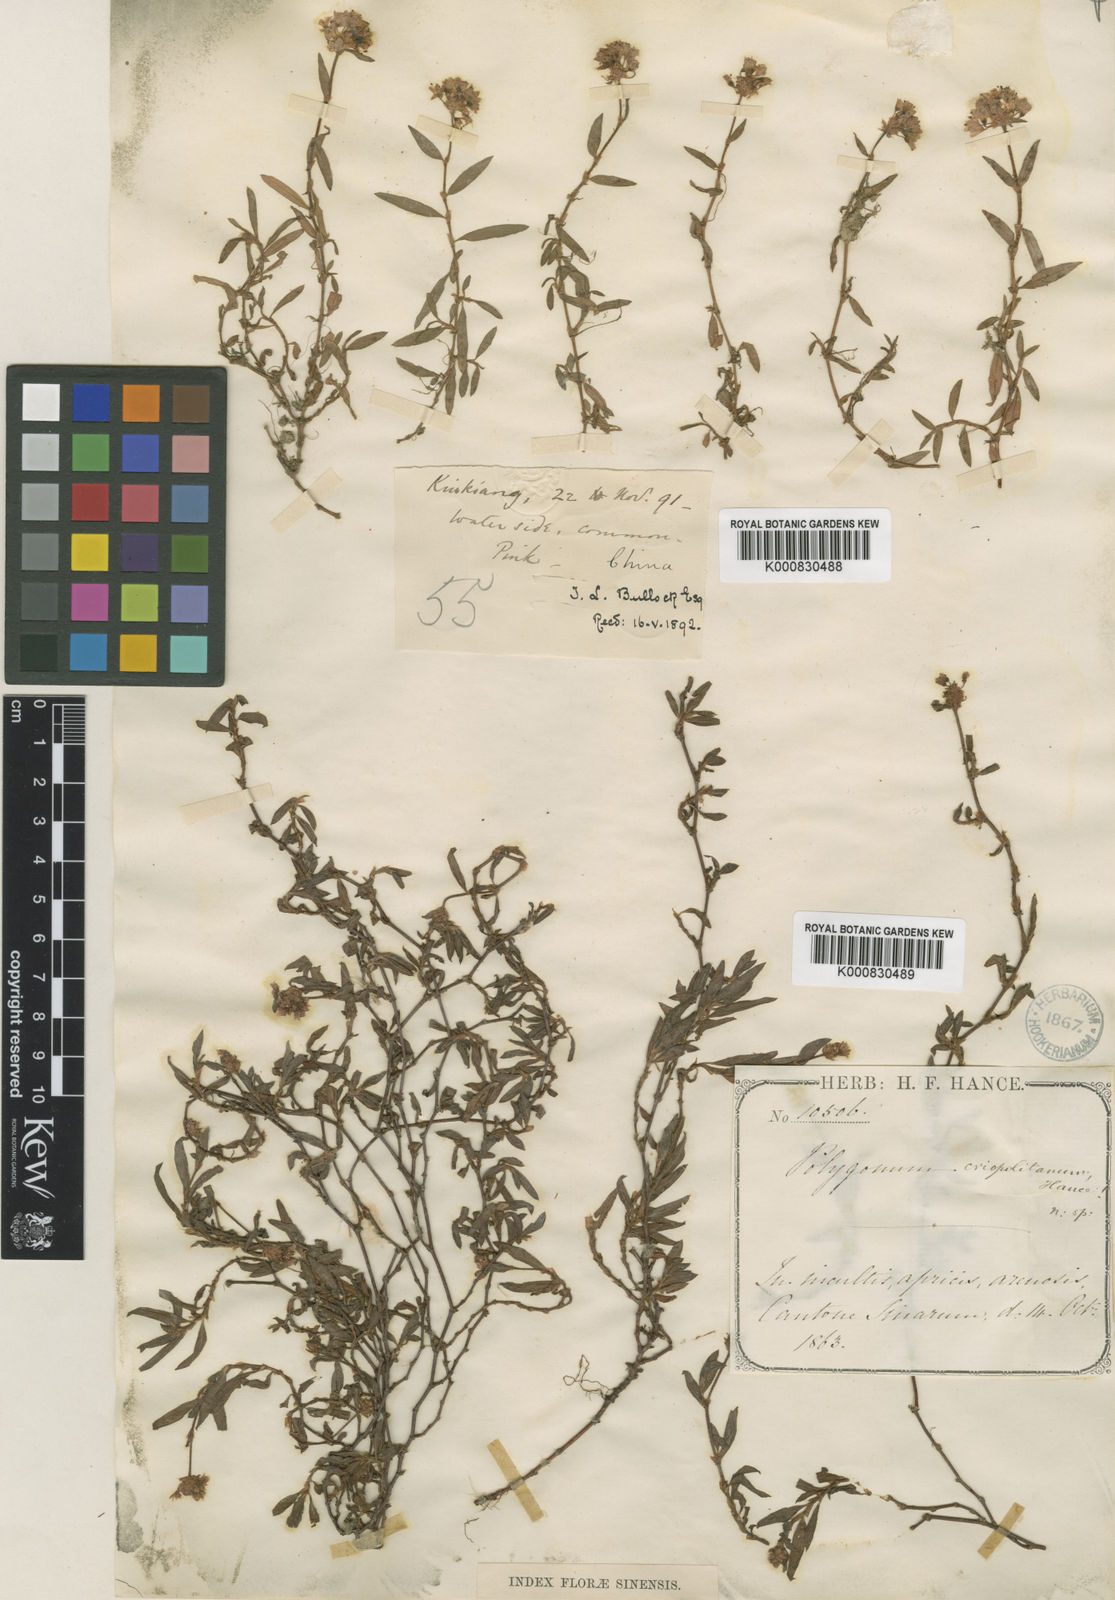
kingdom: Plantae
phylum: Tracheophyta
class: Magnoliopsida
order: Caryophyllales
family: Polygonaceae
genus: Persicaria
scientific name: Persicaria criopolitana
